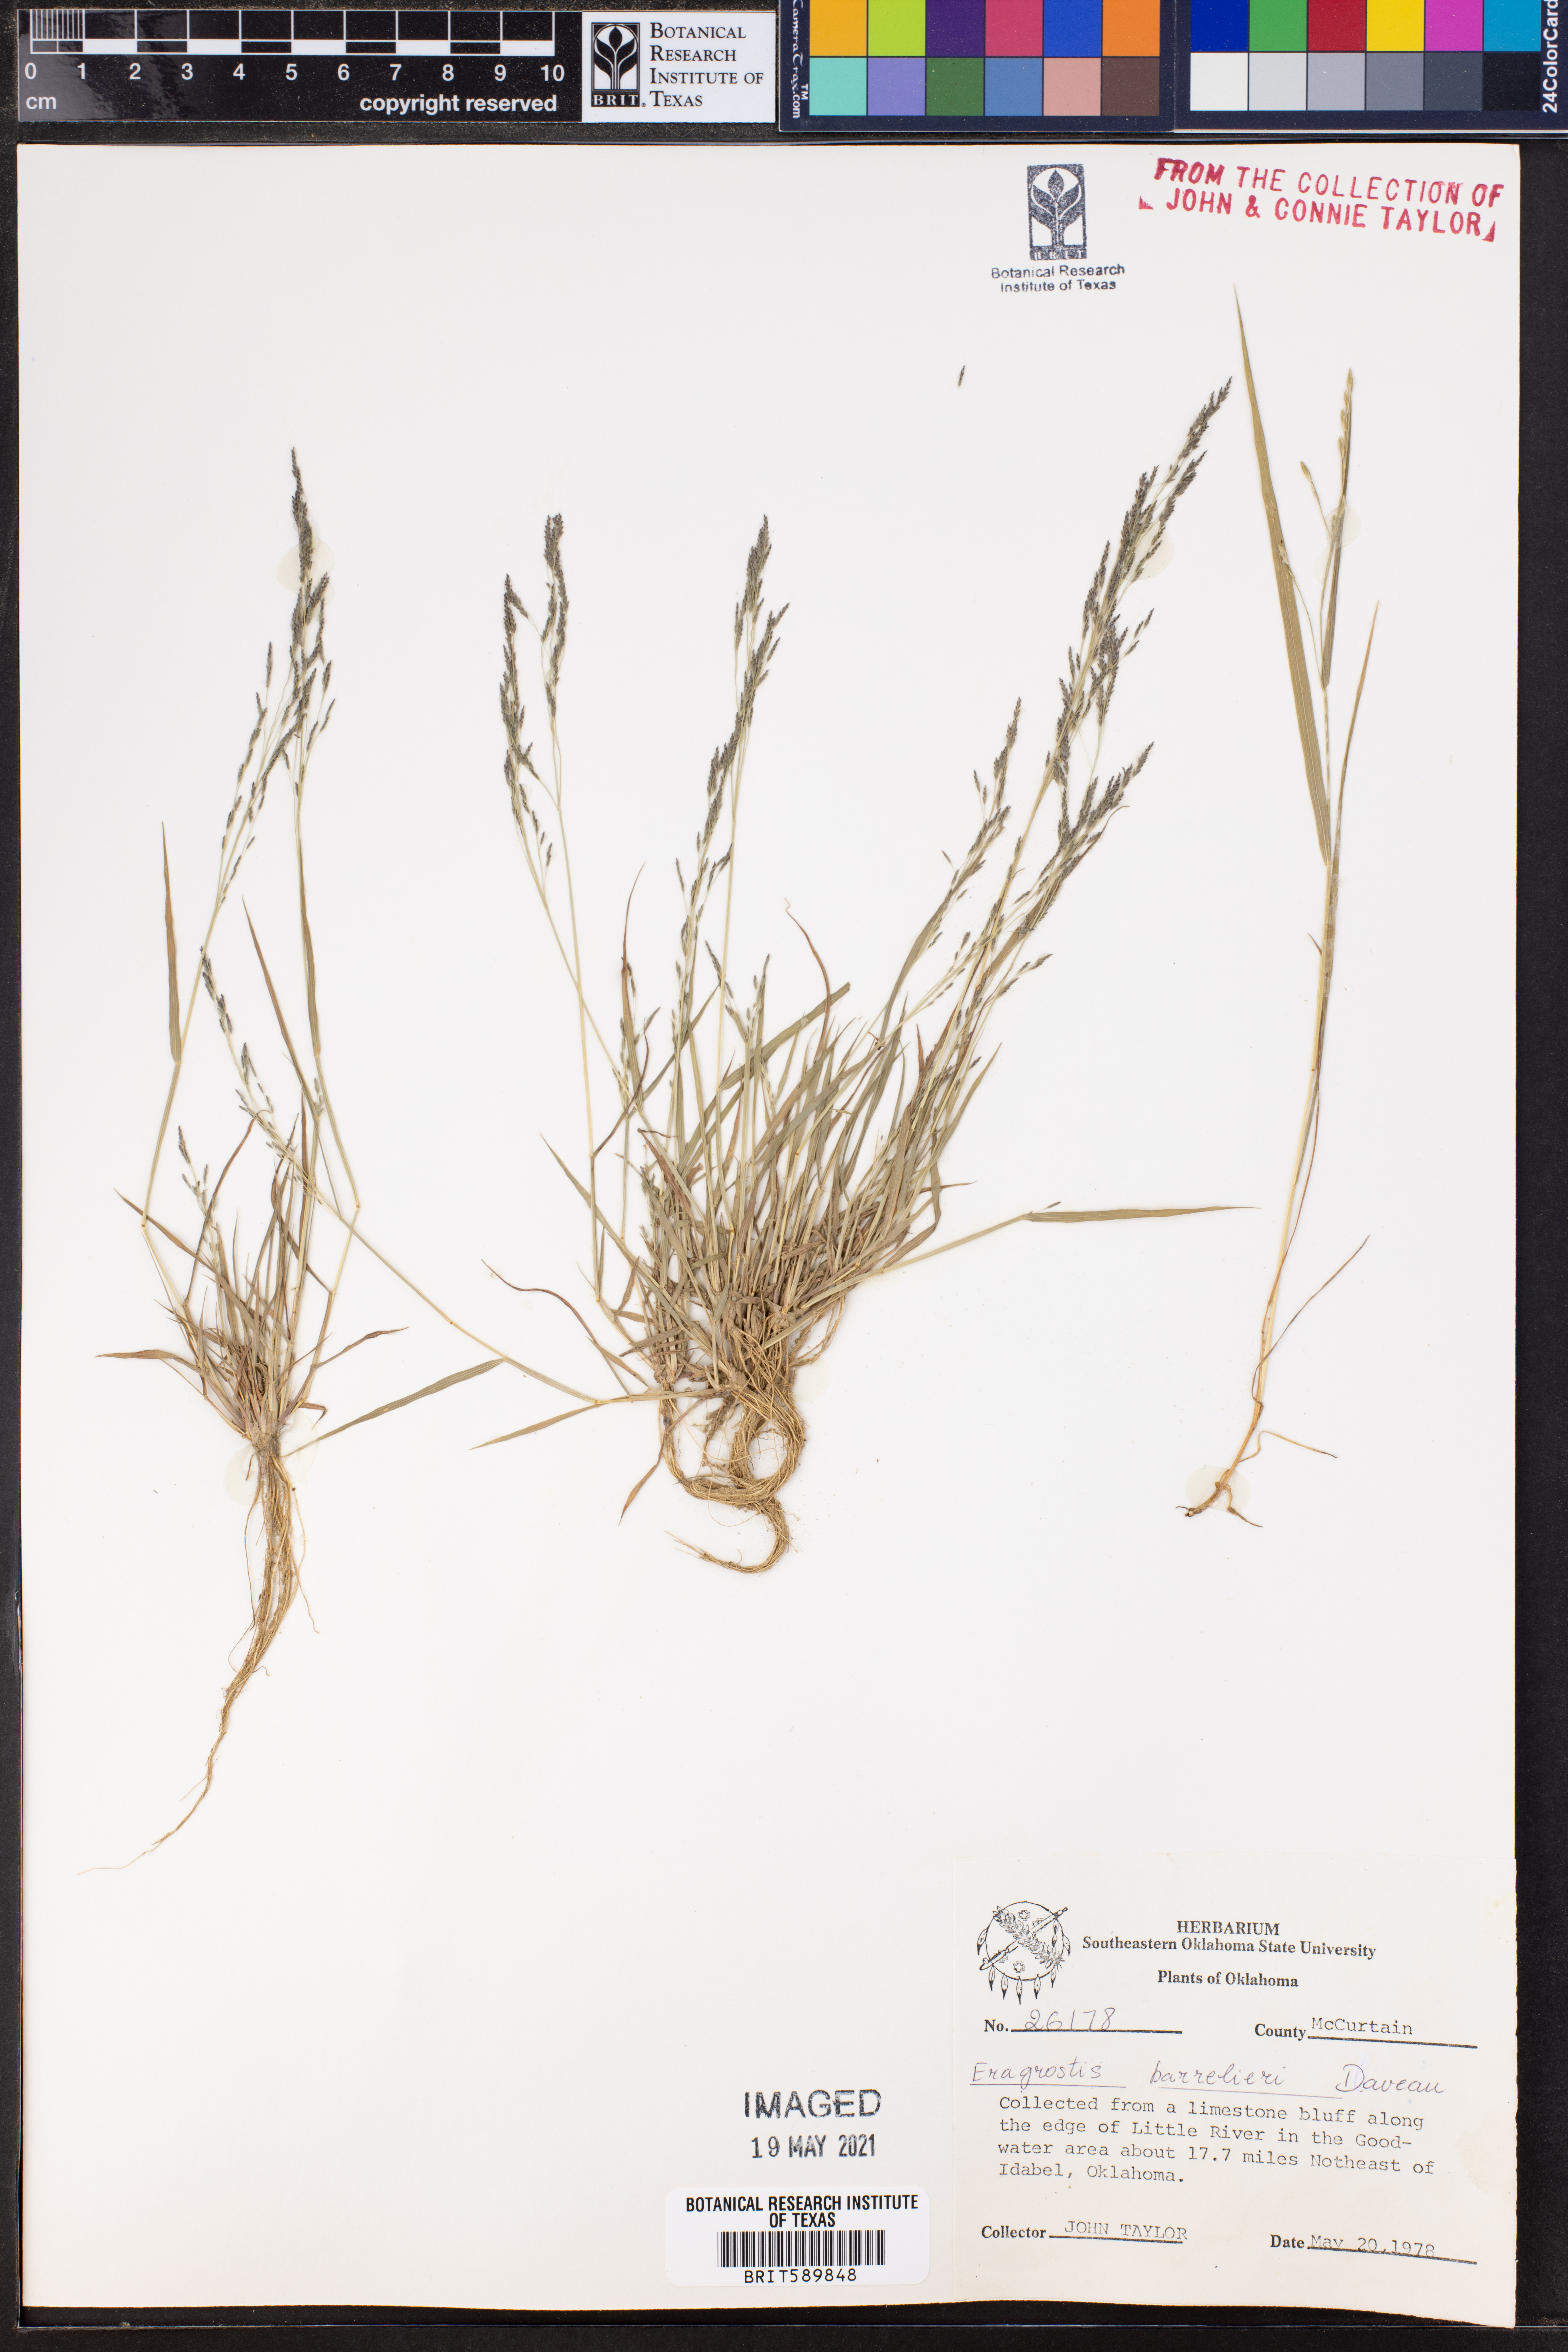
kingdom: Plantae
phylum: Tracheophyta
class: Liliopsida
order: Poales
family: Poaceae
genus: Eragrostis
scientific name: Eragrostis barrelieri
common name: Mediterranean lovegrass
